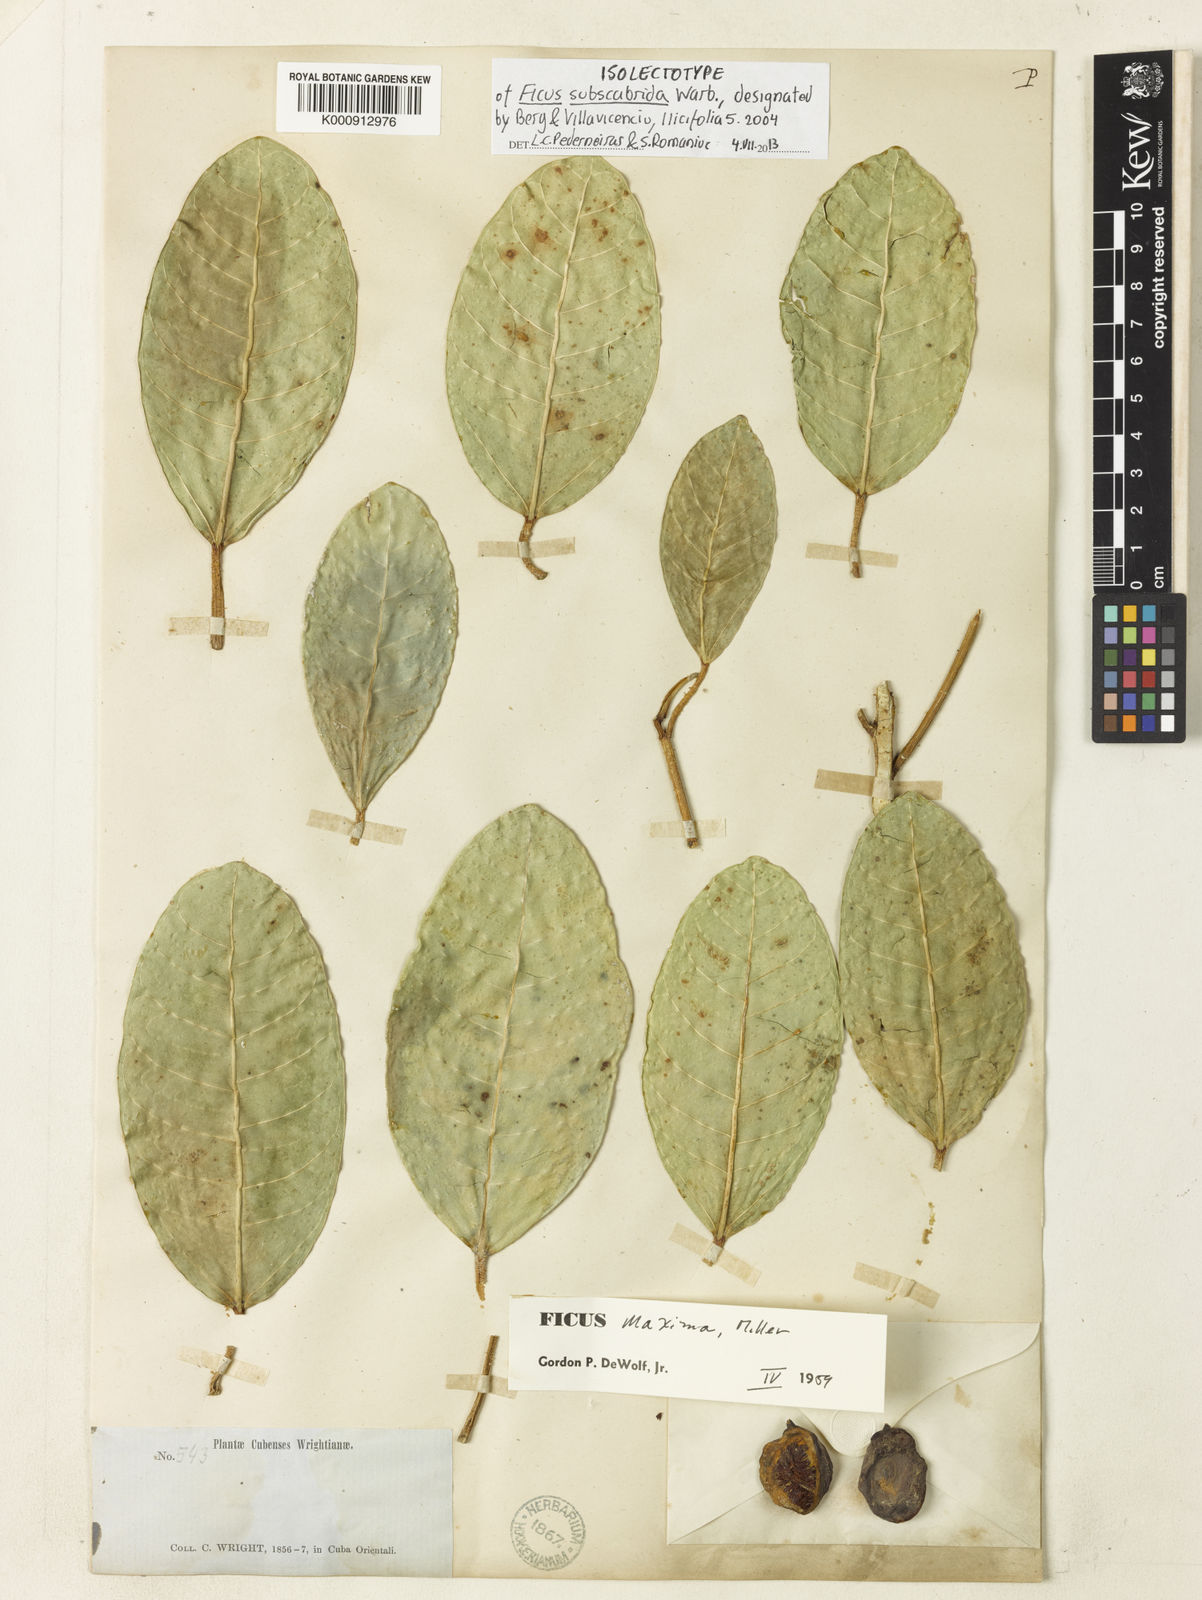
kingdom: Plantae
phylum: Tracheophyta
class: Magnoliopsida
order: Rosales
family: Moraceae
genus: Ficus
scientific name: Ficus maxima
